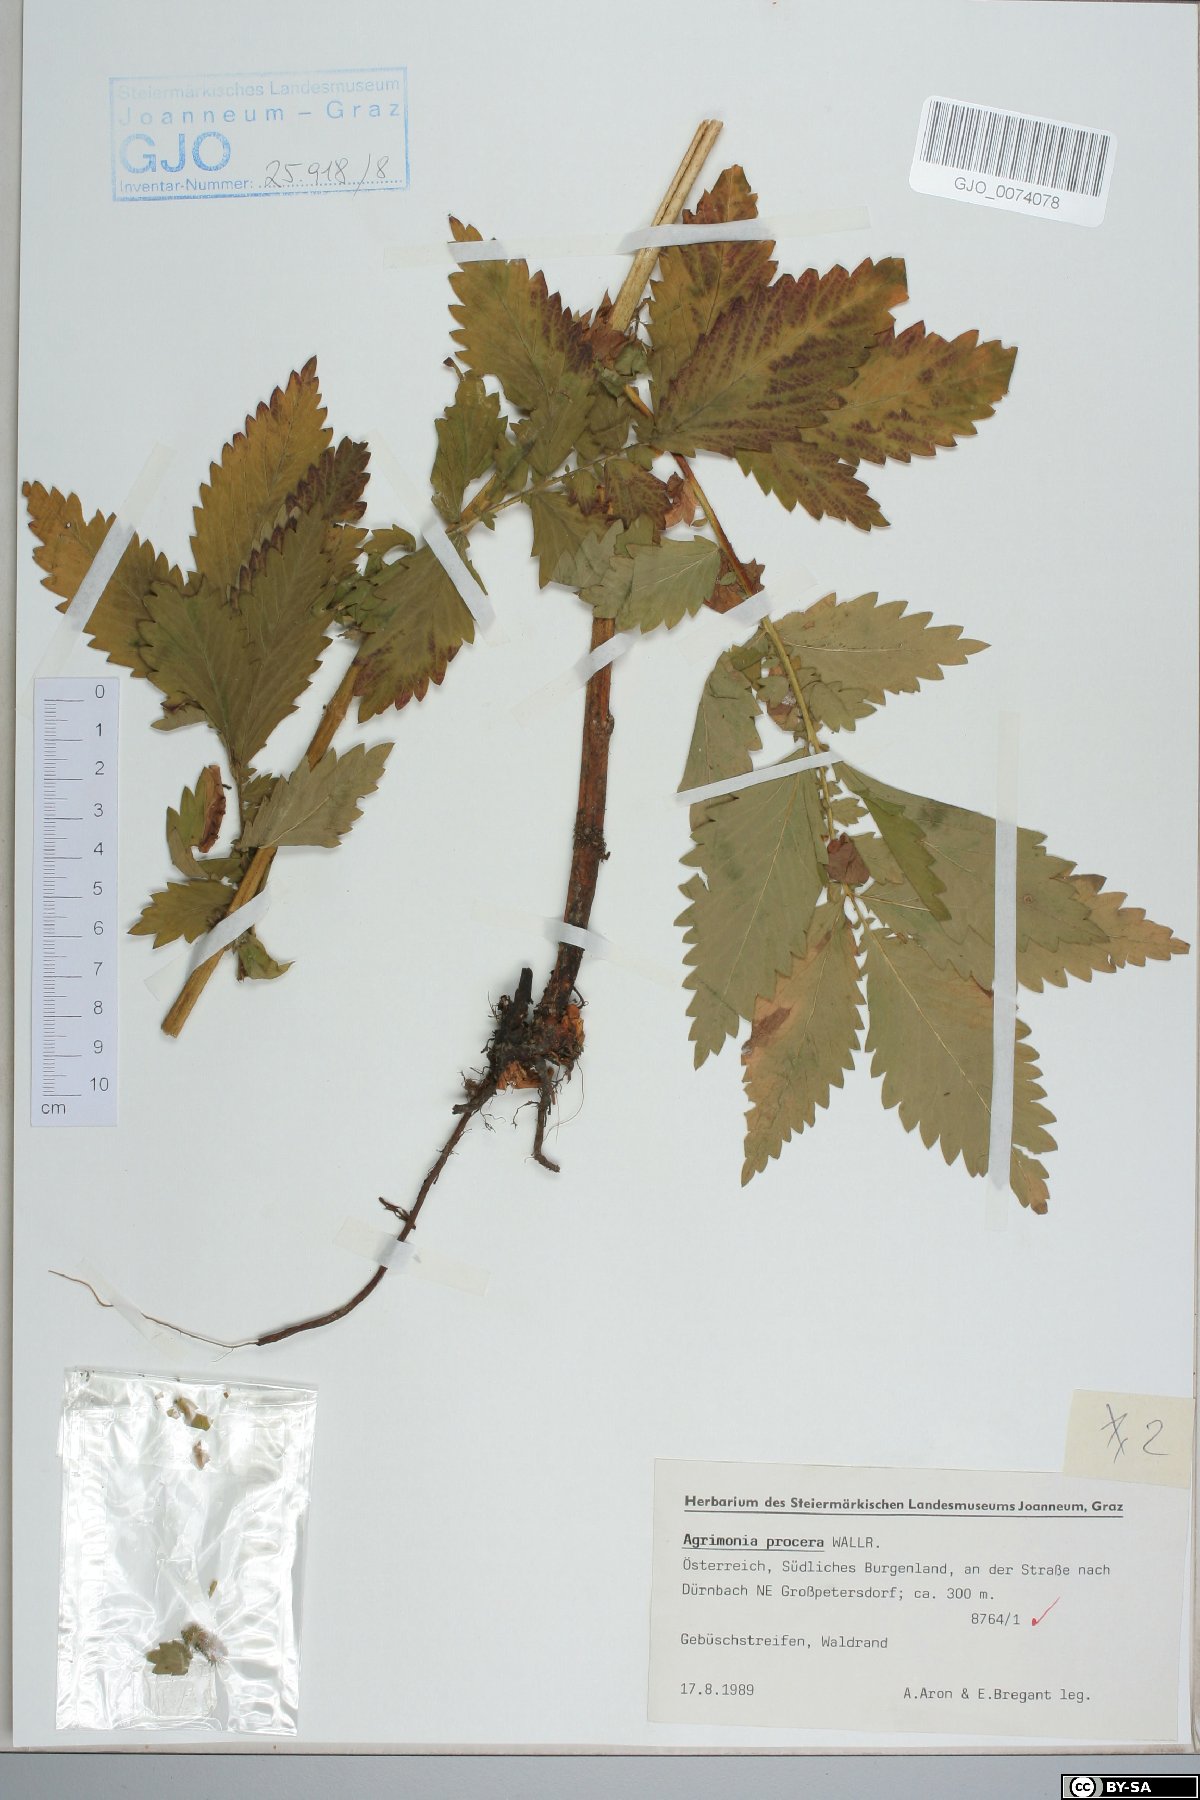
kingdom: Plantae
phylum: Tracheophyta
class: Magnoliopsida
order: Rosales
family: Rosaceae
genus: Agrimonia
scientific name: Agrimonia procera
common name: Fragrant agrimony
